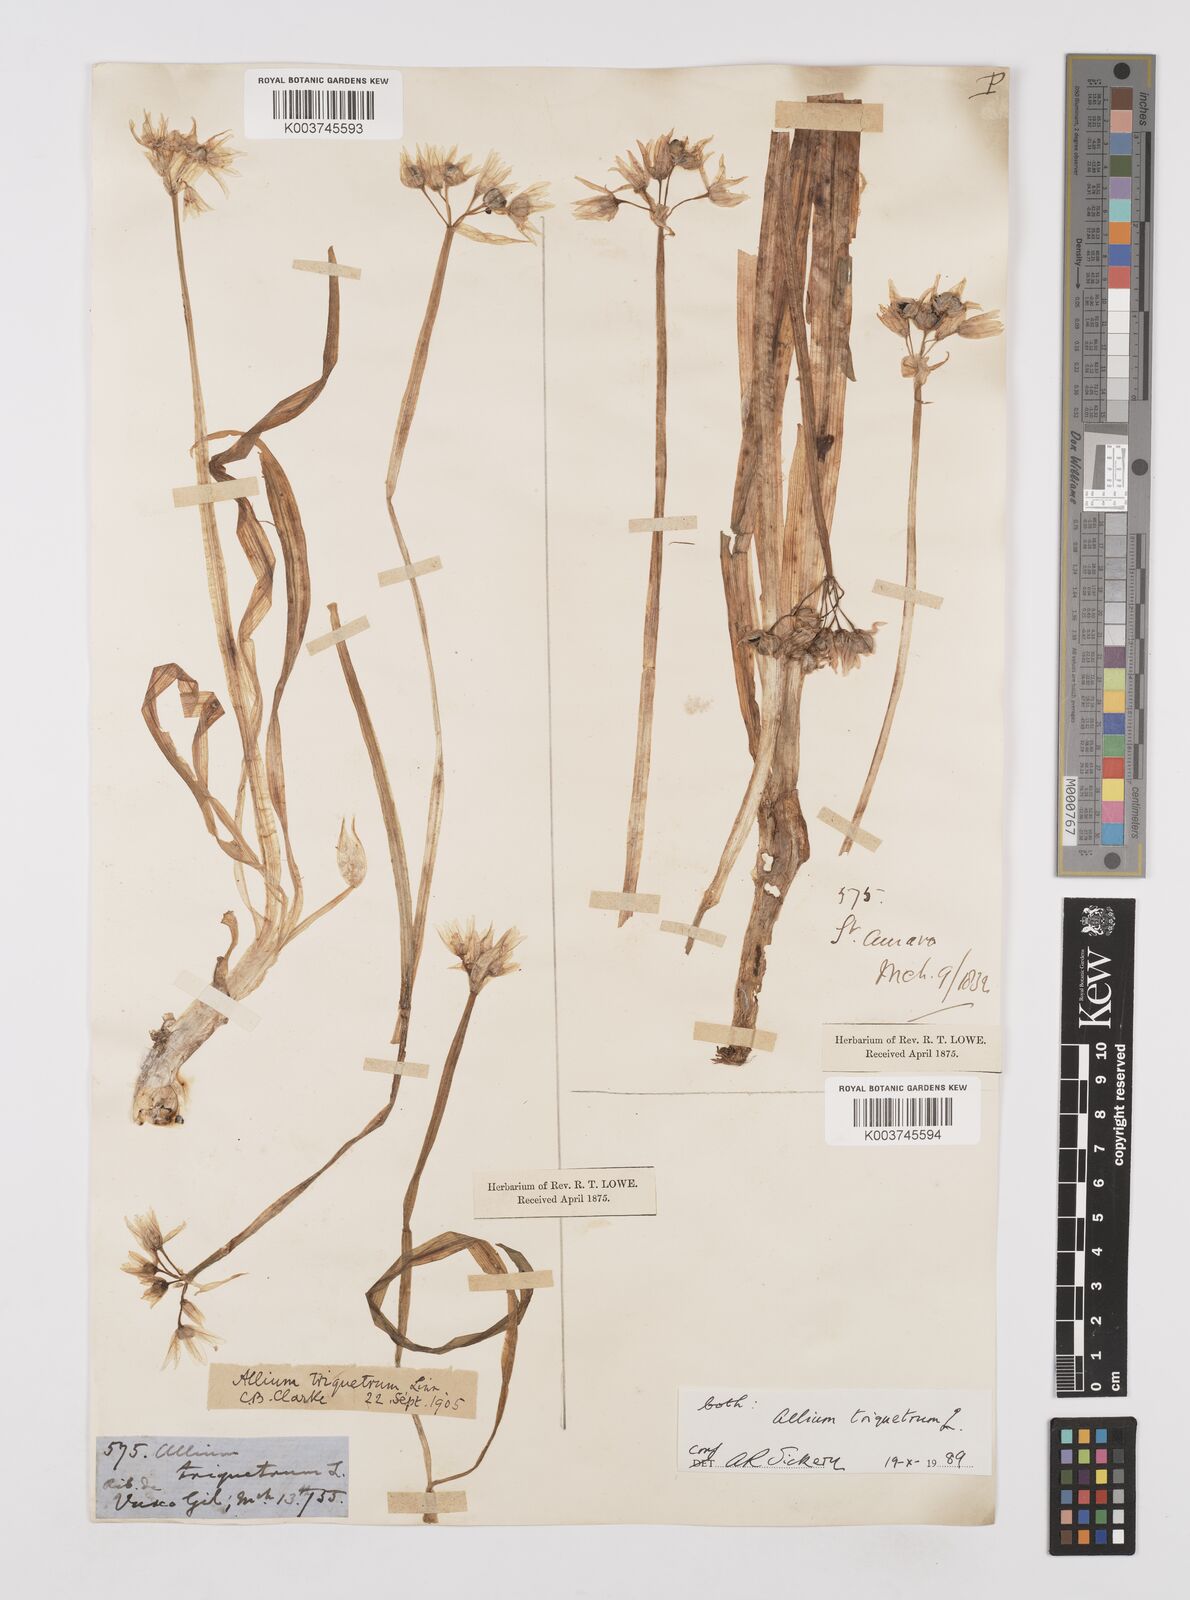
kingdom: Plantae
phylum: Tracheophyta
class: Liliopsida
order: Asparagales
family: Amaryllidaceae
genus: Allium
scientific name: Allium triquetrum
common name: Three-cornered garlic
